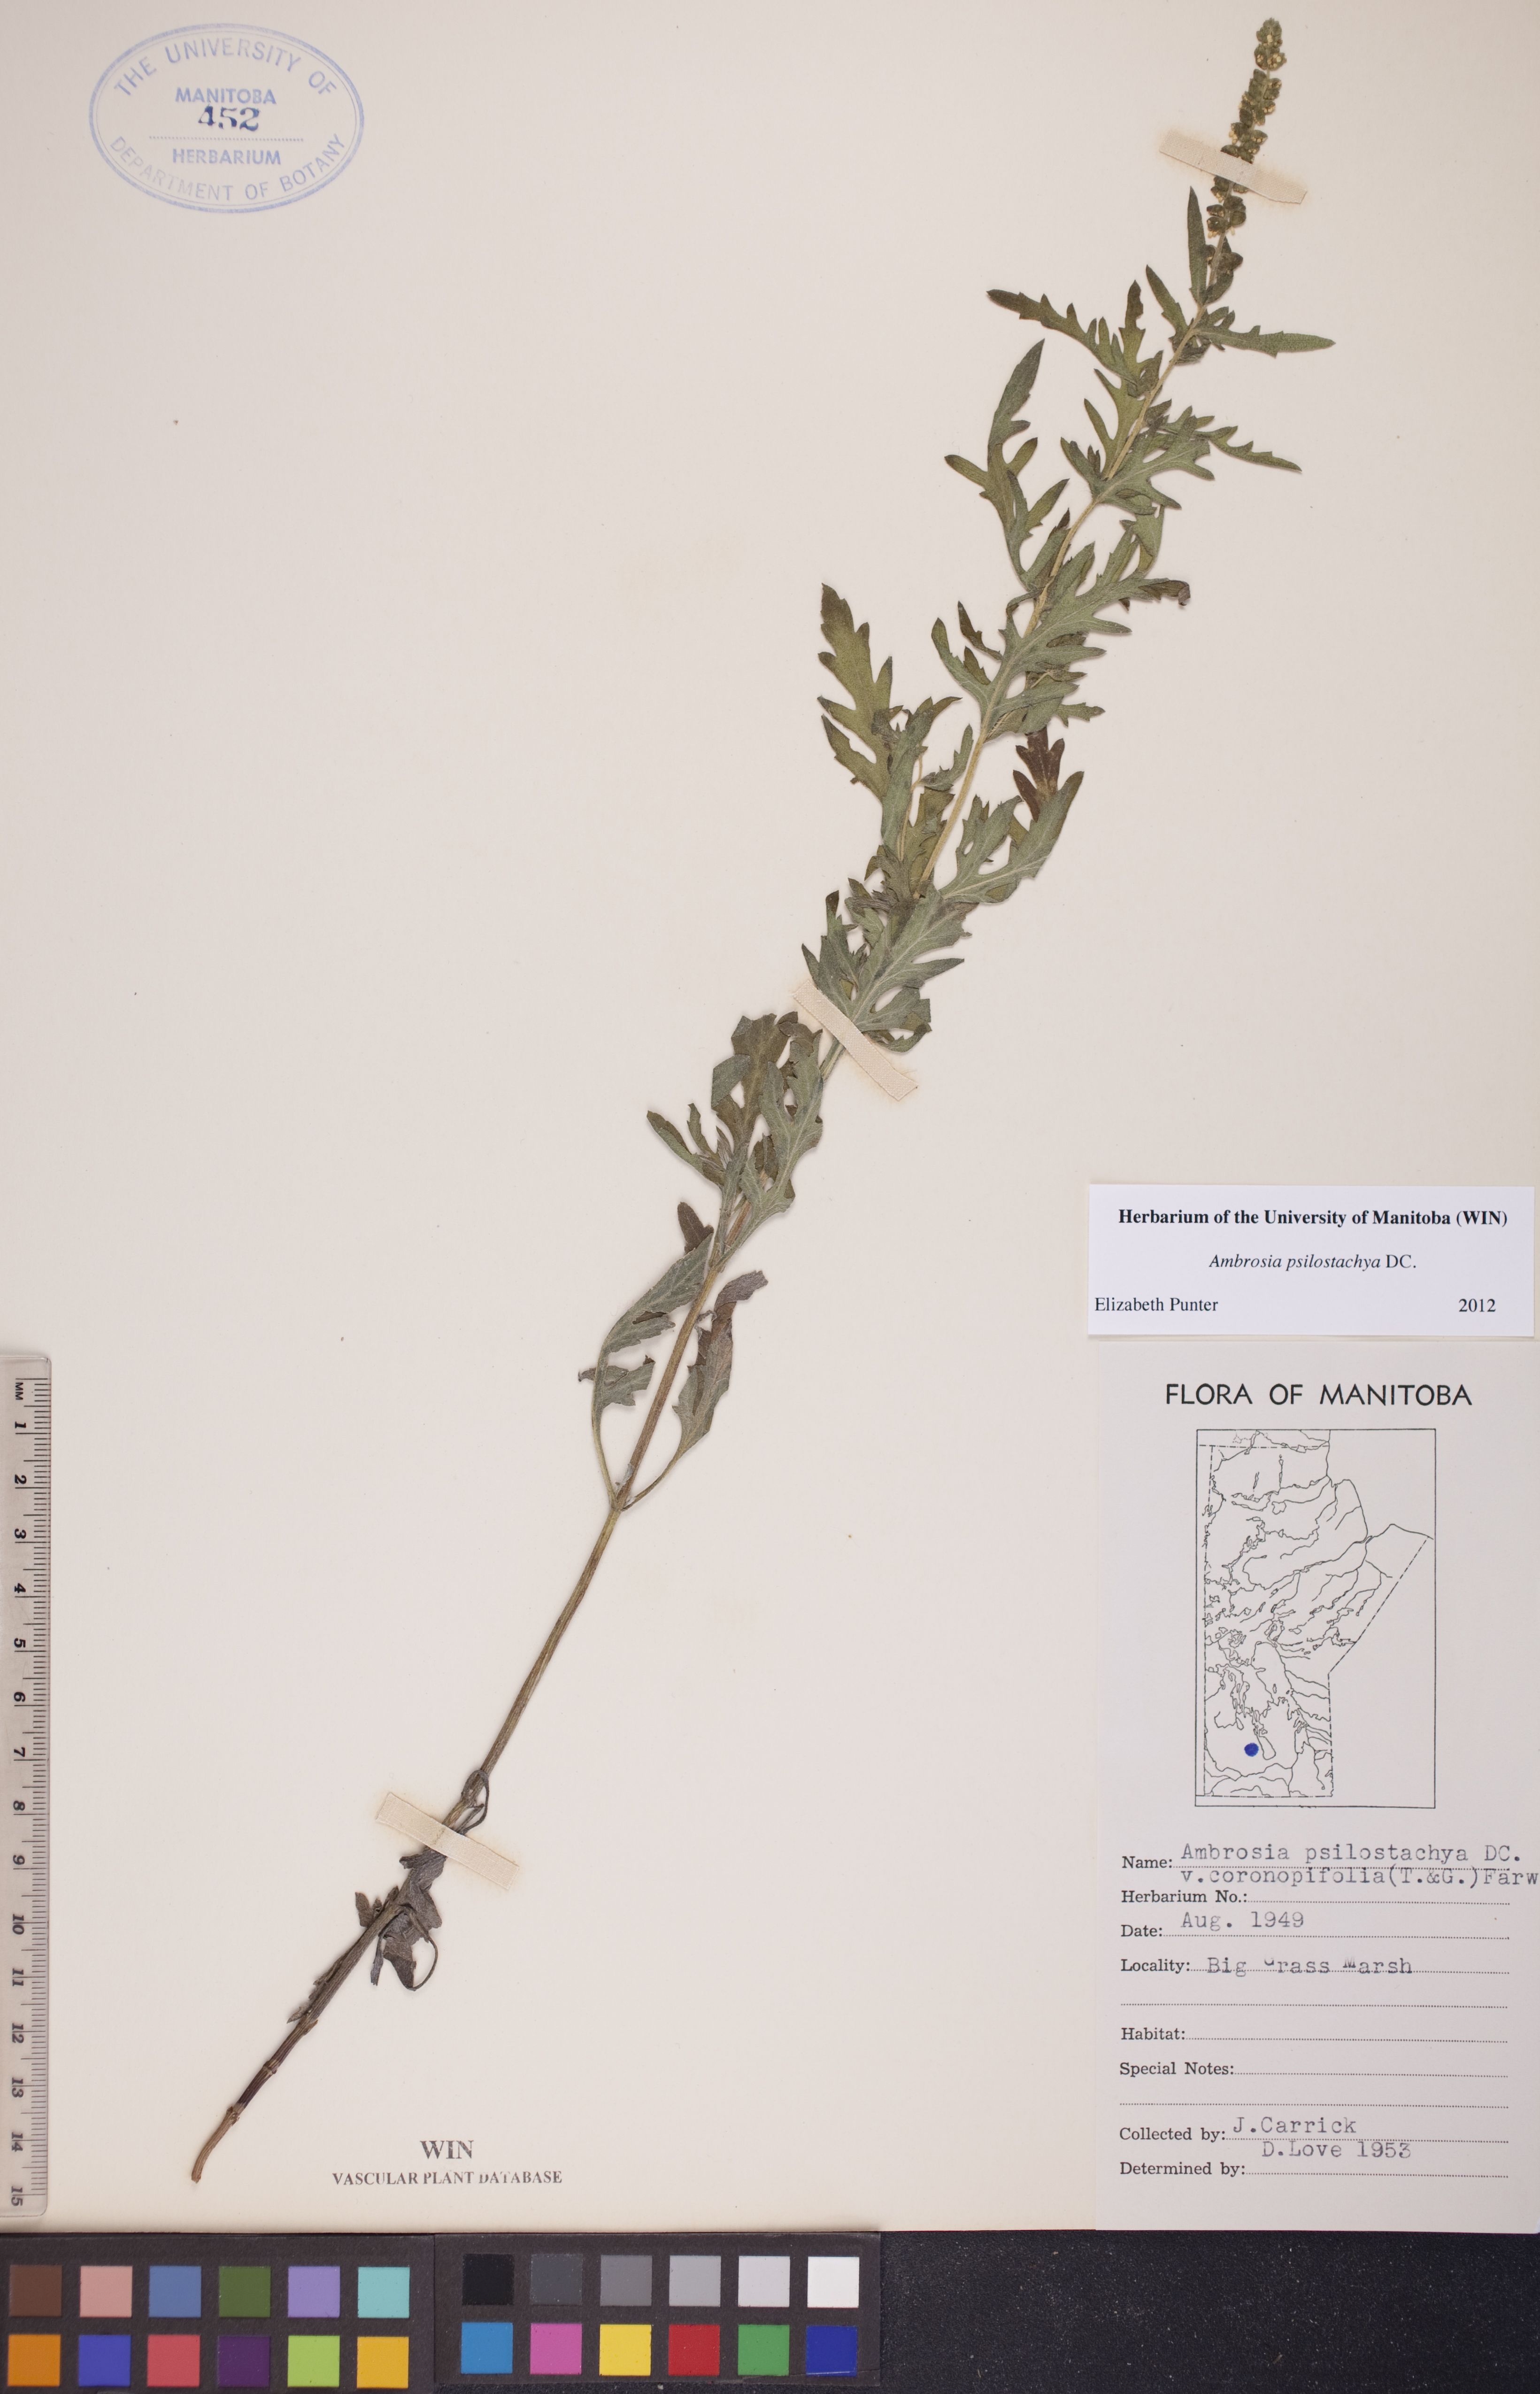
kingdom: Plantae
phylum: Tracheophyta
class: Magnoliopsida
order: Asterales
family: Asteraceae
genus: Ambrosia
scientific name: Ambrosia psilostachya
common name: Perennial ragweed
